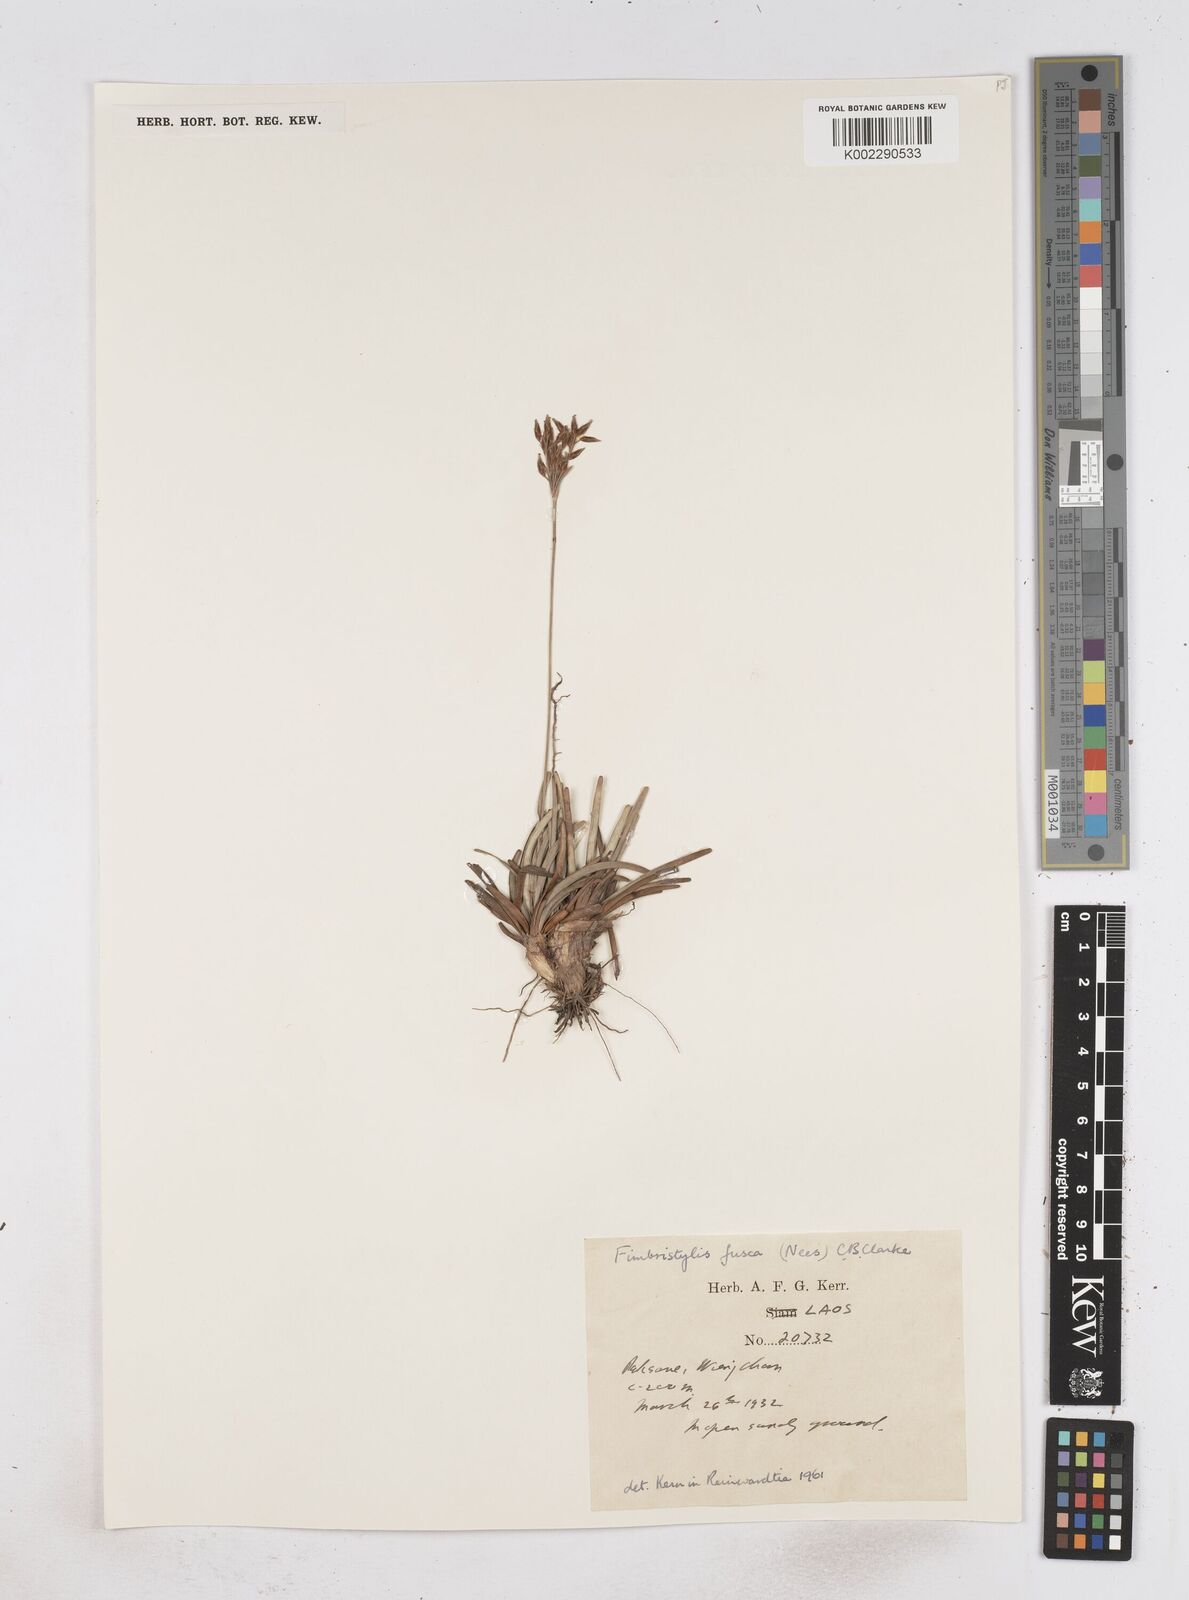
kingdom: Plantae
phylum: Tracheophyta
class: Liliopsida
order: Poales
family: Cyperaceae
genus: Fimbristylis
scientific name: Fimbristylis fusca
